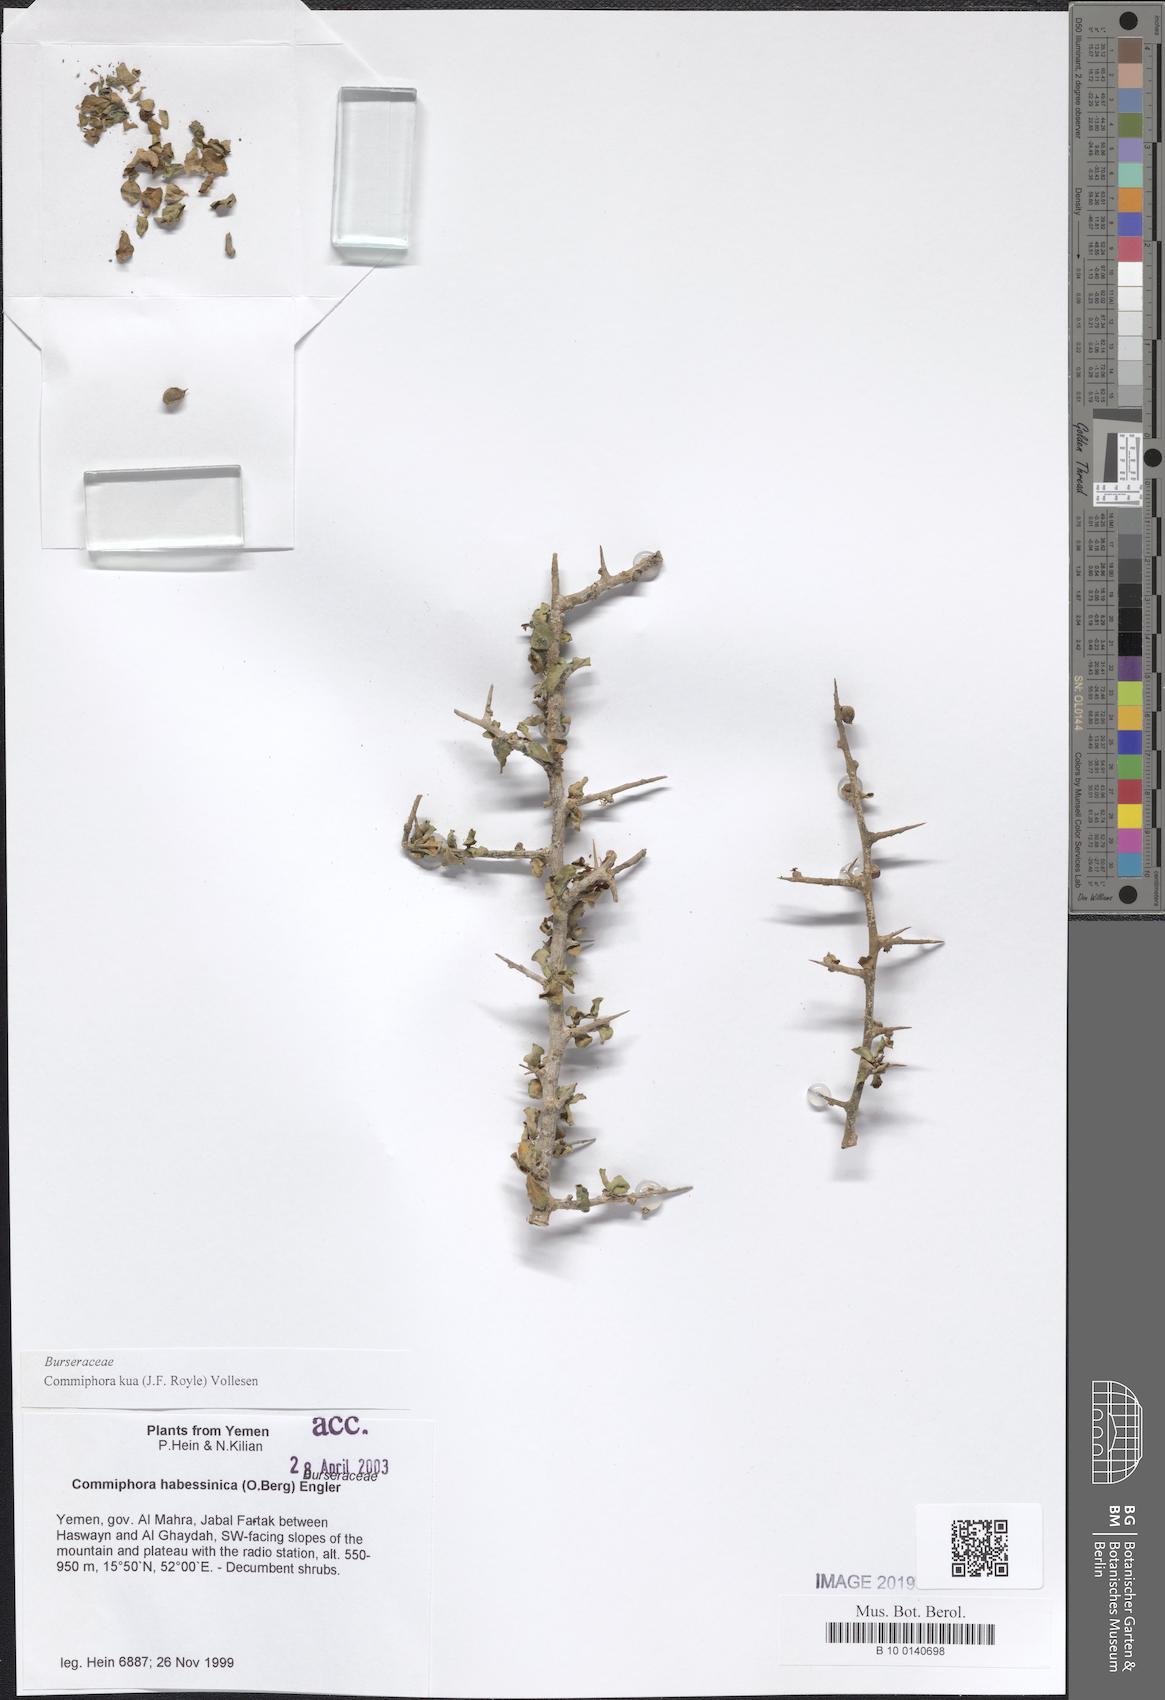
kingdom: Plantae
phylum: Tracheophyta
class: Magnoliopsida
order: Sapindales
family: Burseraceae
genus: Commiphora
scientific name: Commiphora kua
